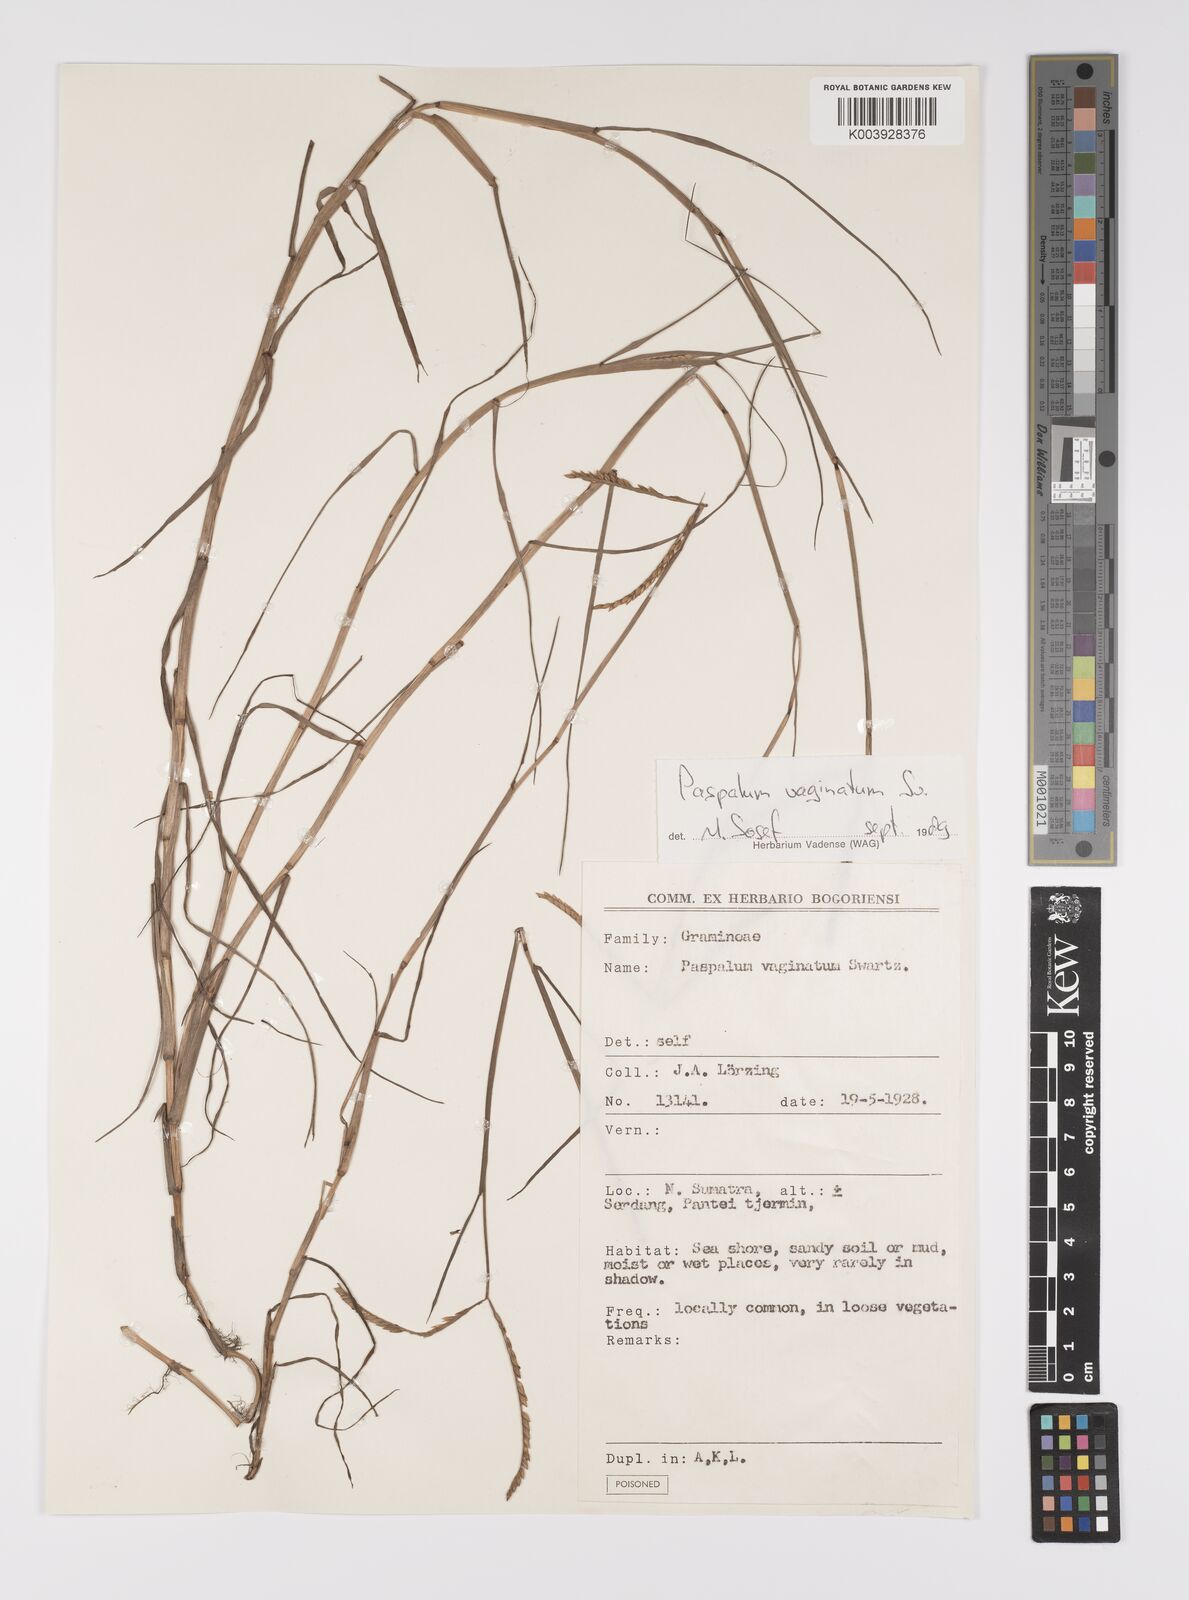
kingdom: Plantae
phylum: Tracheophyta
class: Liliopsida
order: Poales
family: Poaceae
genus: Paspalum
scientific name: Paspalum vaginatum
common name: Seashore paspalum
